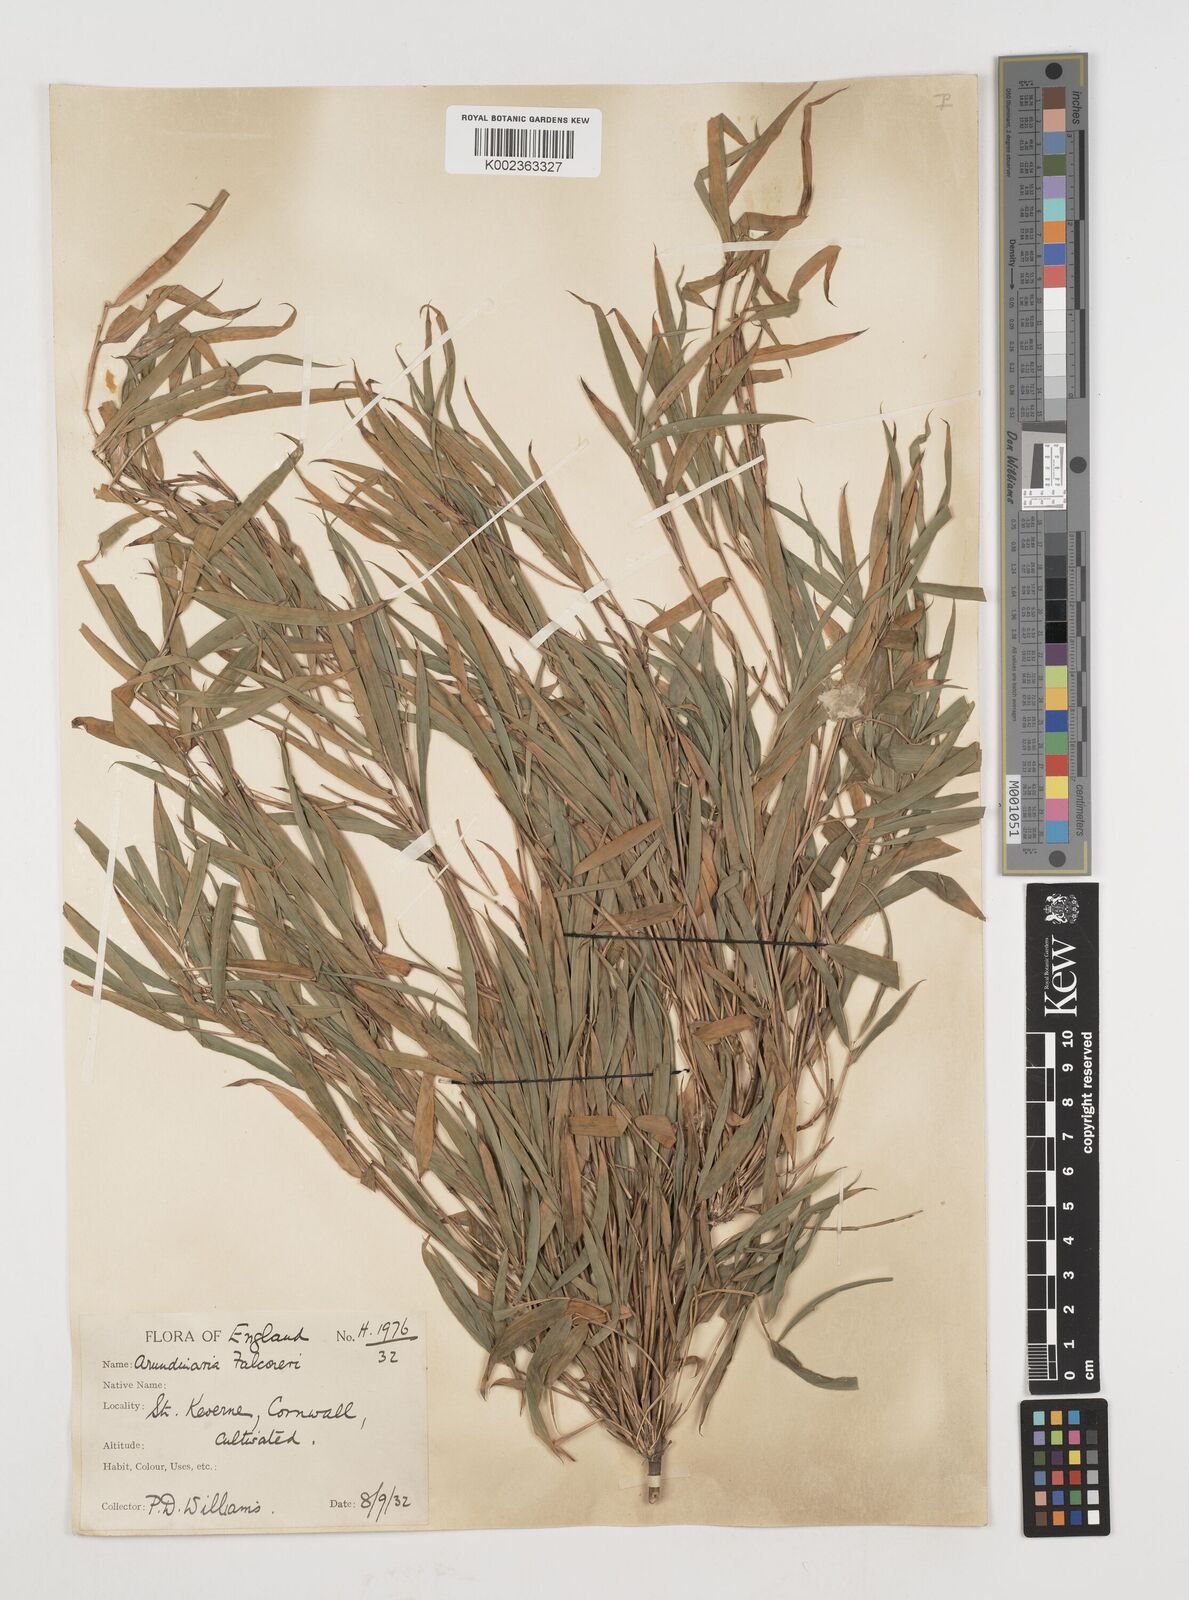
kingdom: Plantae
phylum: Tracheophyta
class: Liliopsida
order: Poales
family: Poaceae
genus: Himalayacalamus
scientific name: Himalayacalamus falconeri
